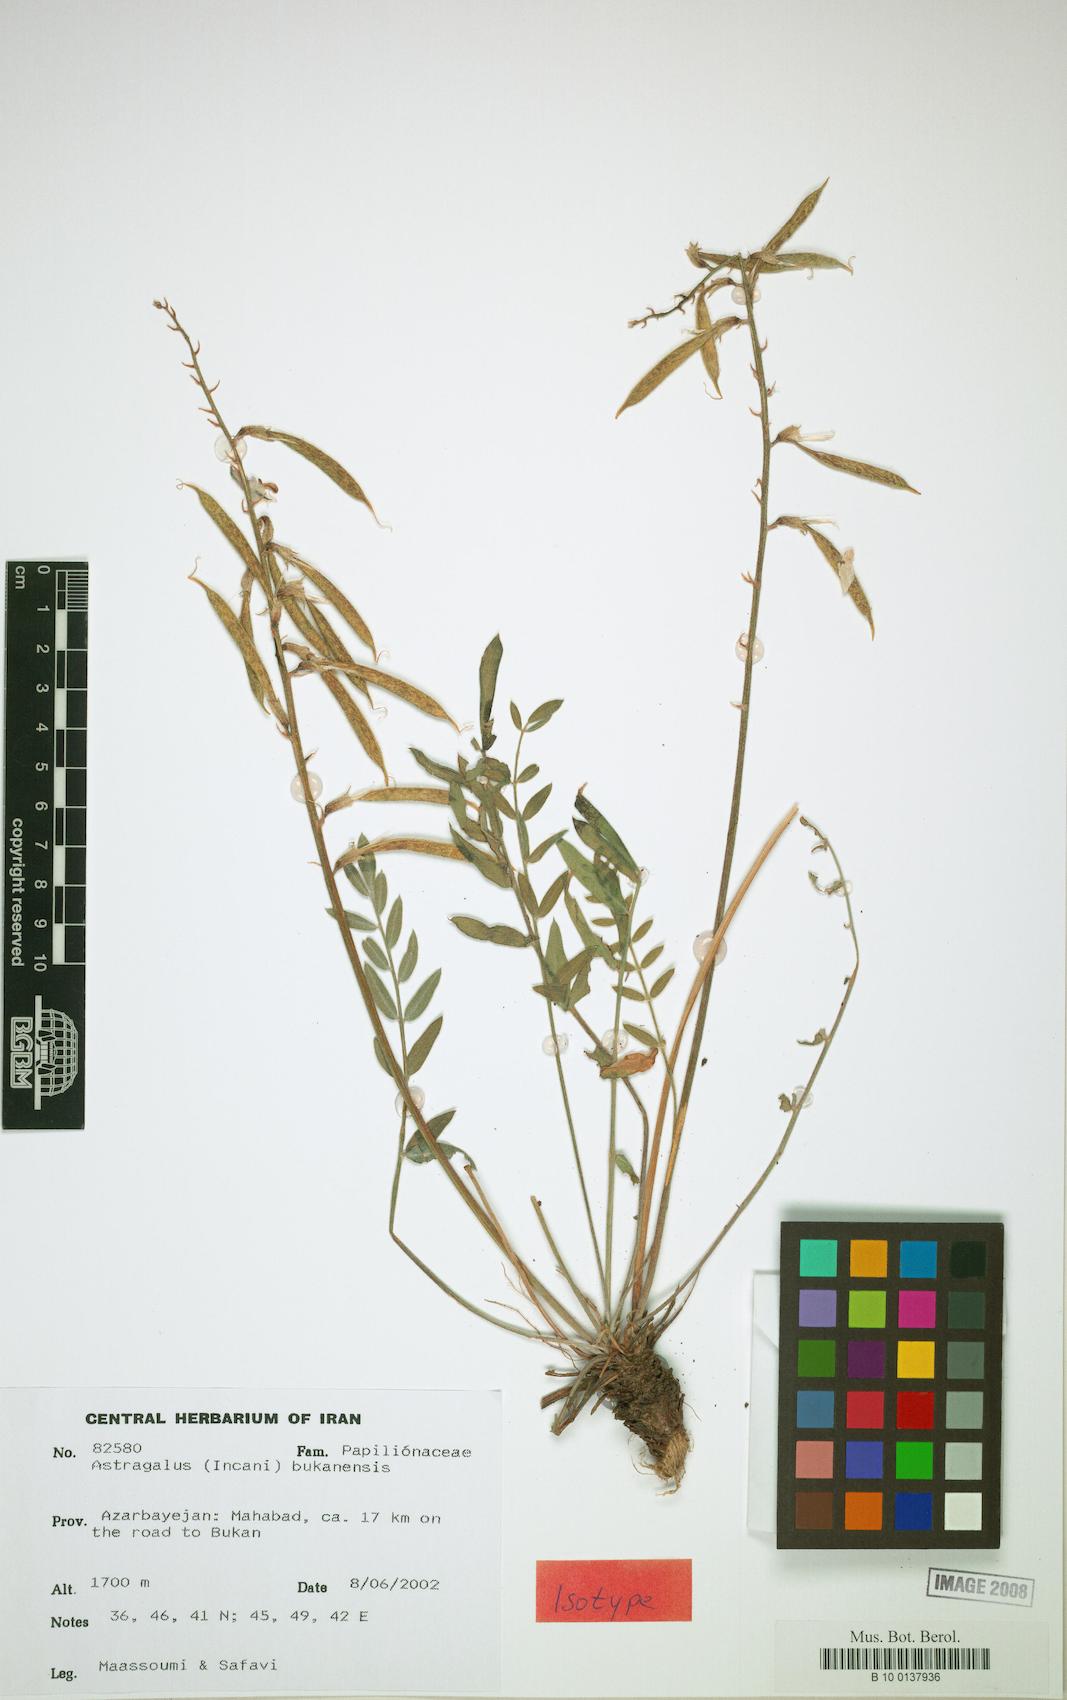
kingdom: Plantae
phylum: Tracheophyta
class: Magnoliopsida
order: Fabales
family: Fabaceae
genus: Astragalus
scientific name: Astragalus bukanensis
